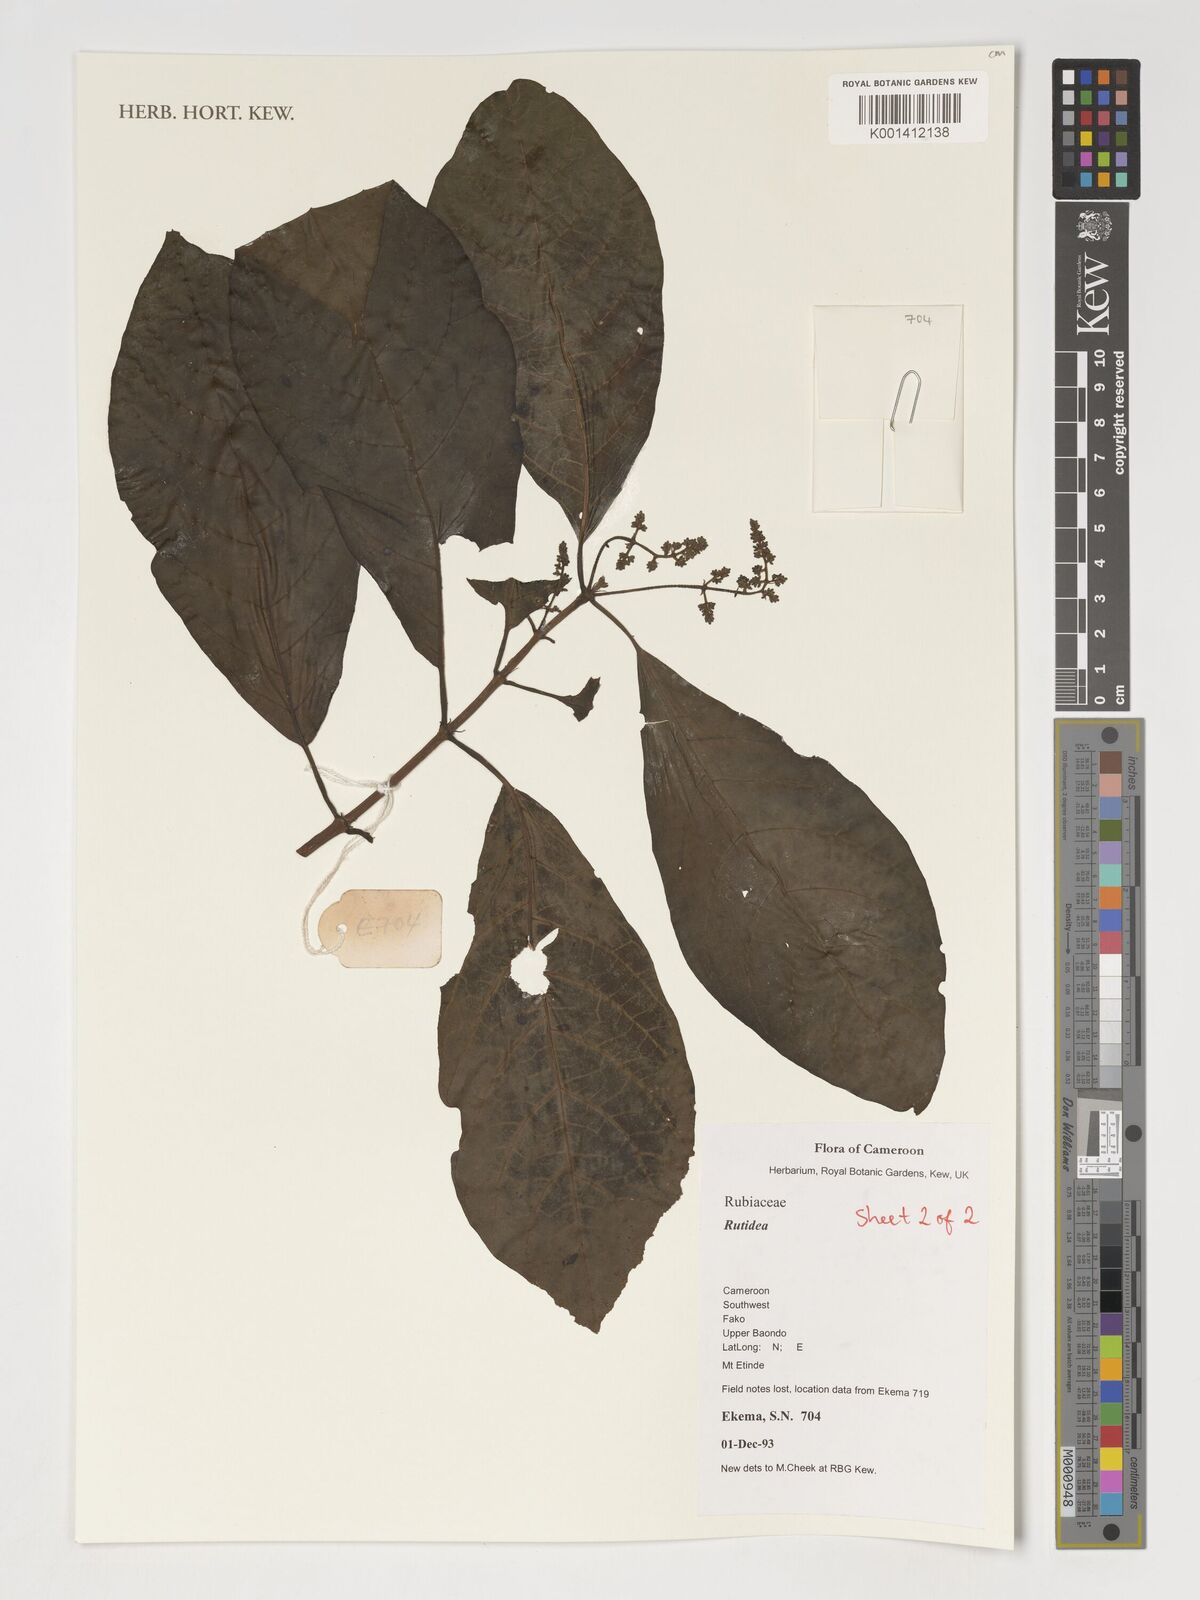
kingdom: Plantae
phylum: Tracheophyta
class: Magnoliopsida
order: Gentianales
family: Rubiaceae
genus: Rutidea
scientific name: Rutidea
